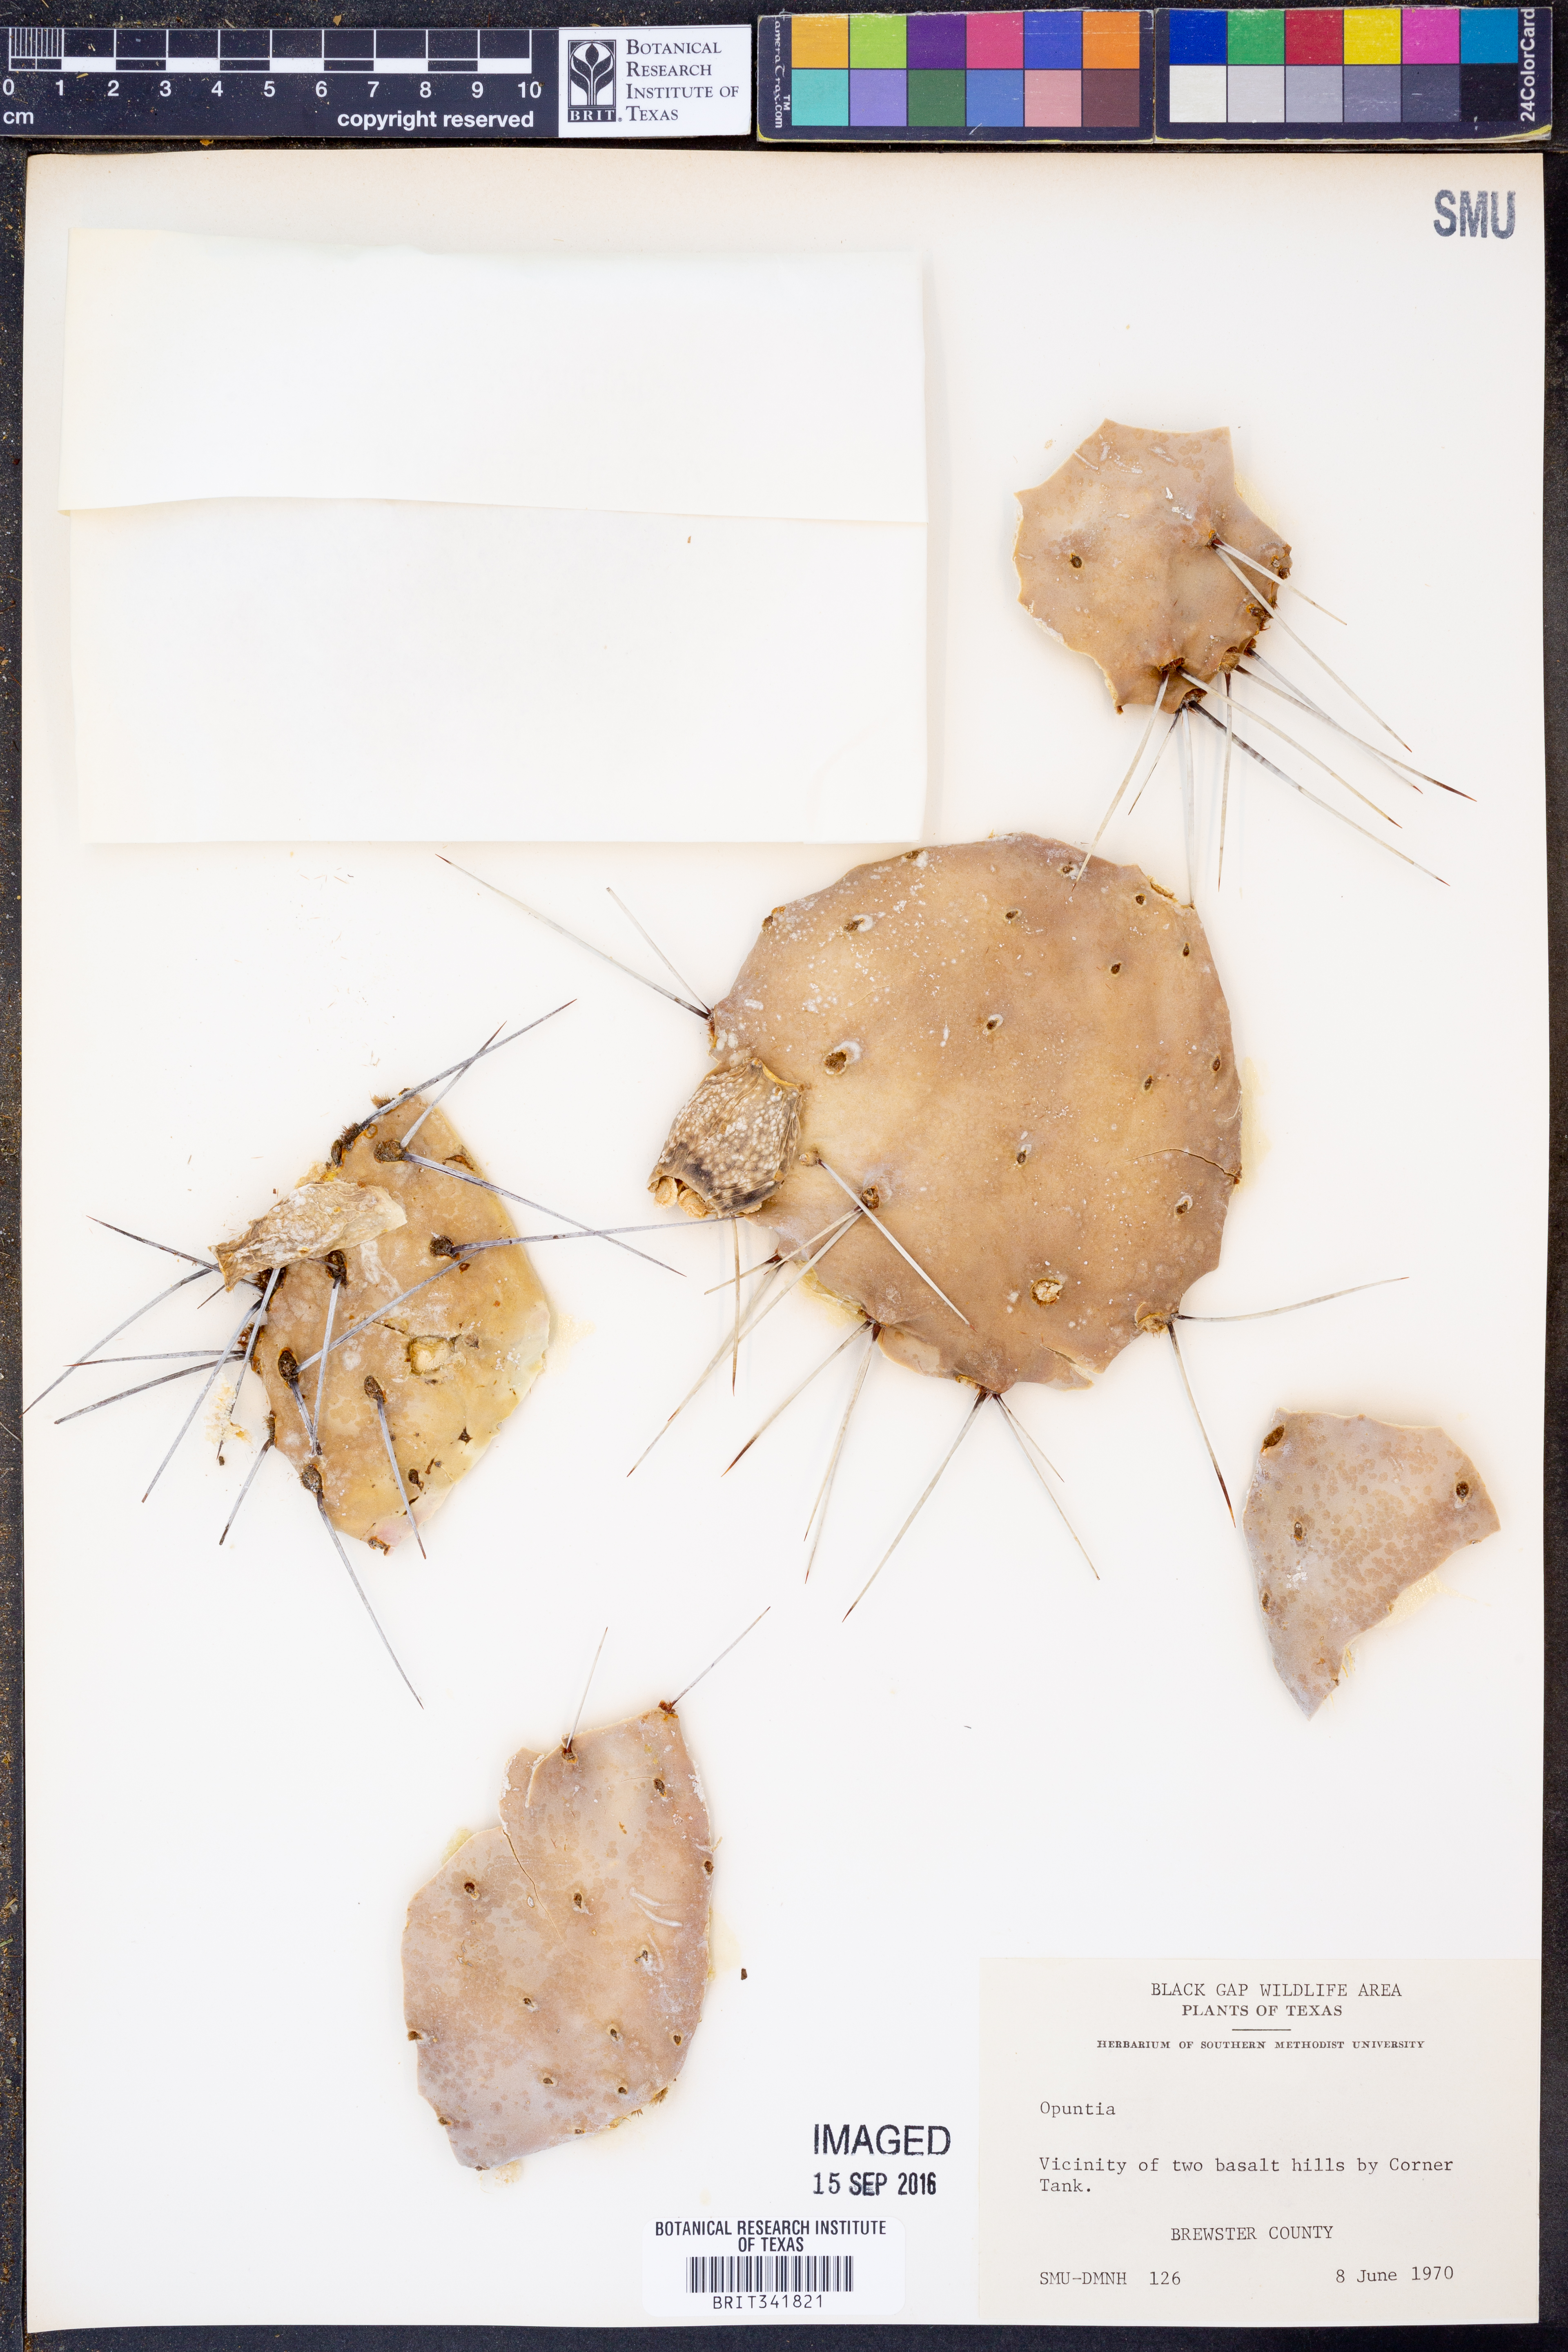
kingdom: Plantae
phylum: Tracheophyta
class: Magnoliopsida
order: Caryophyllales
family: Cactaceae
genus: Opuntia
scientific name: Opuntia
